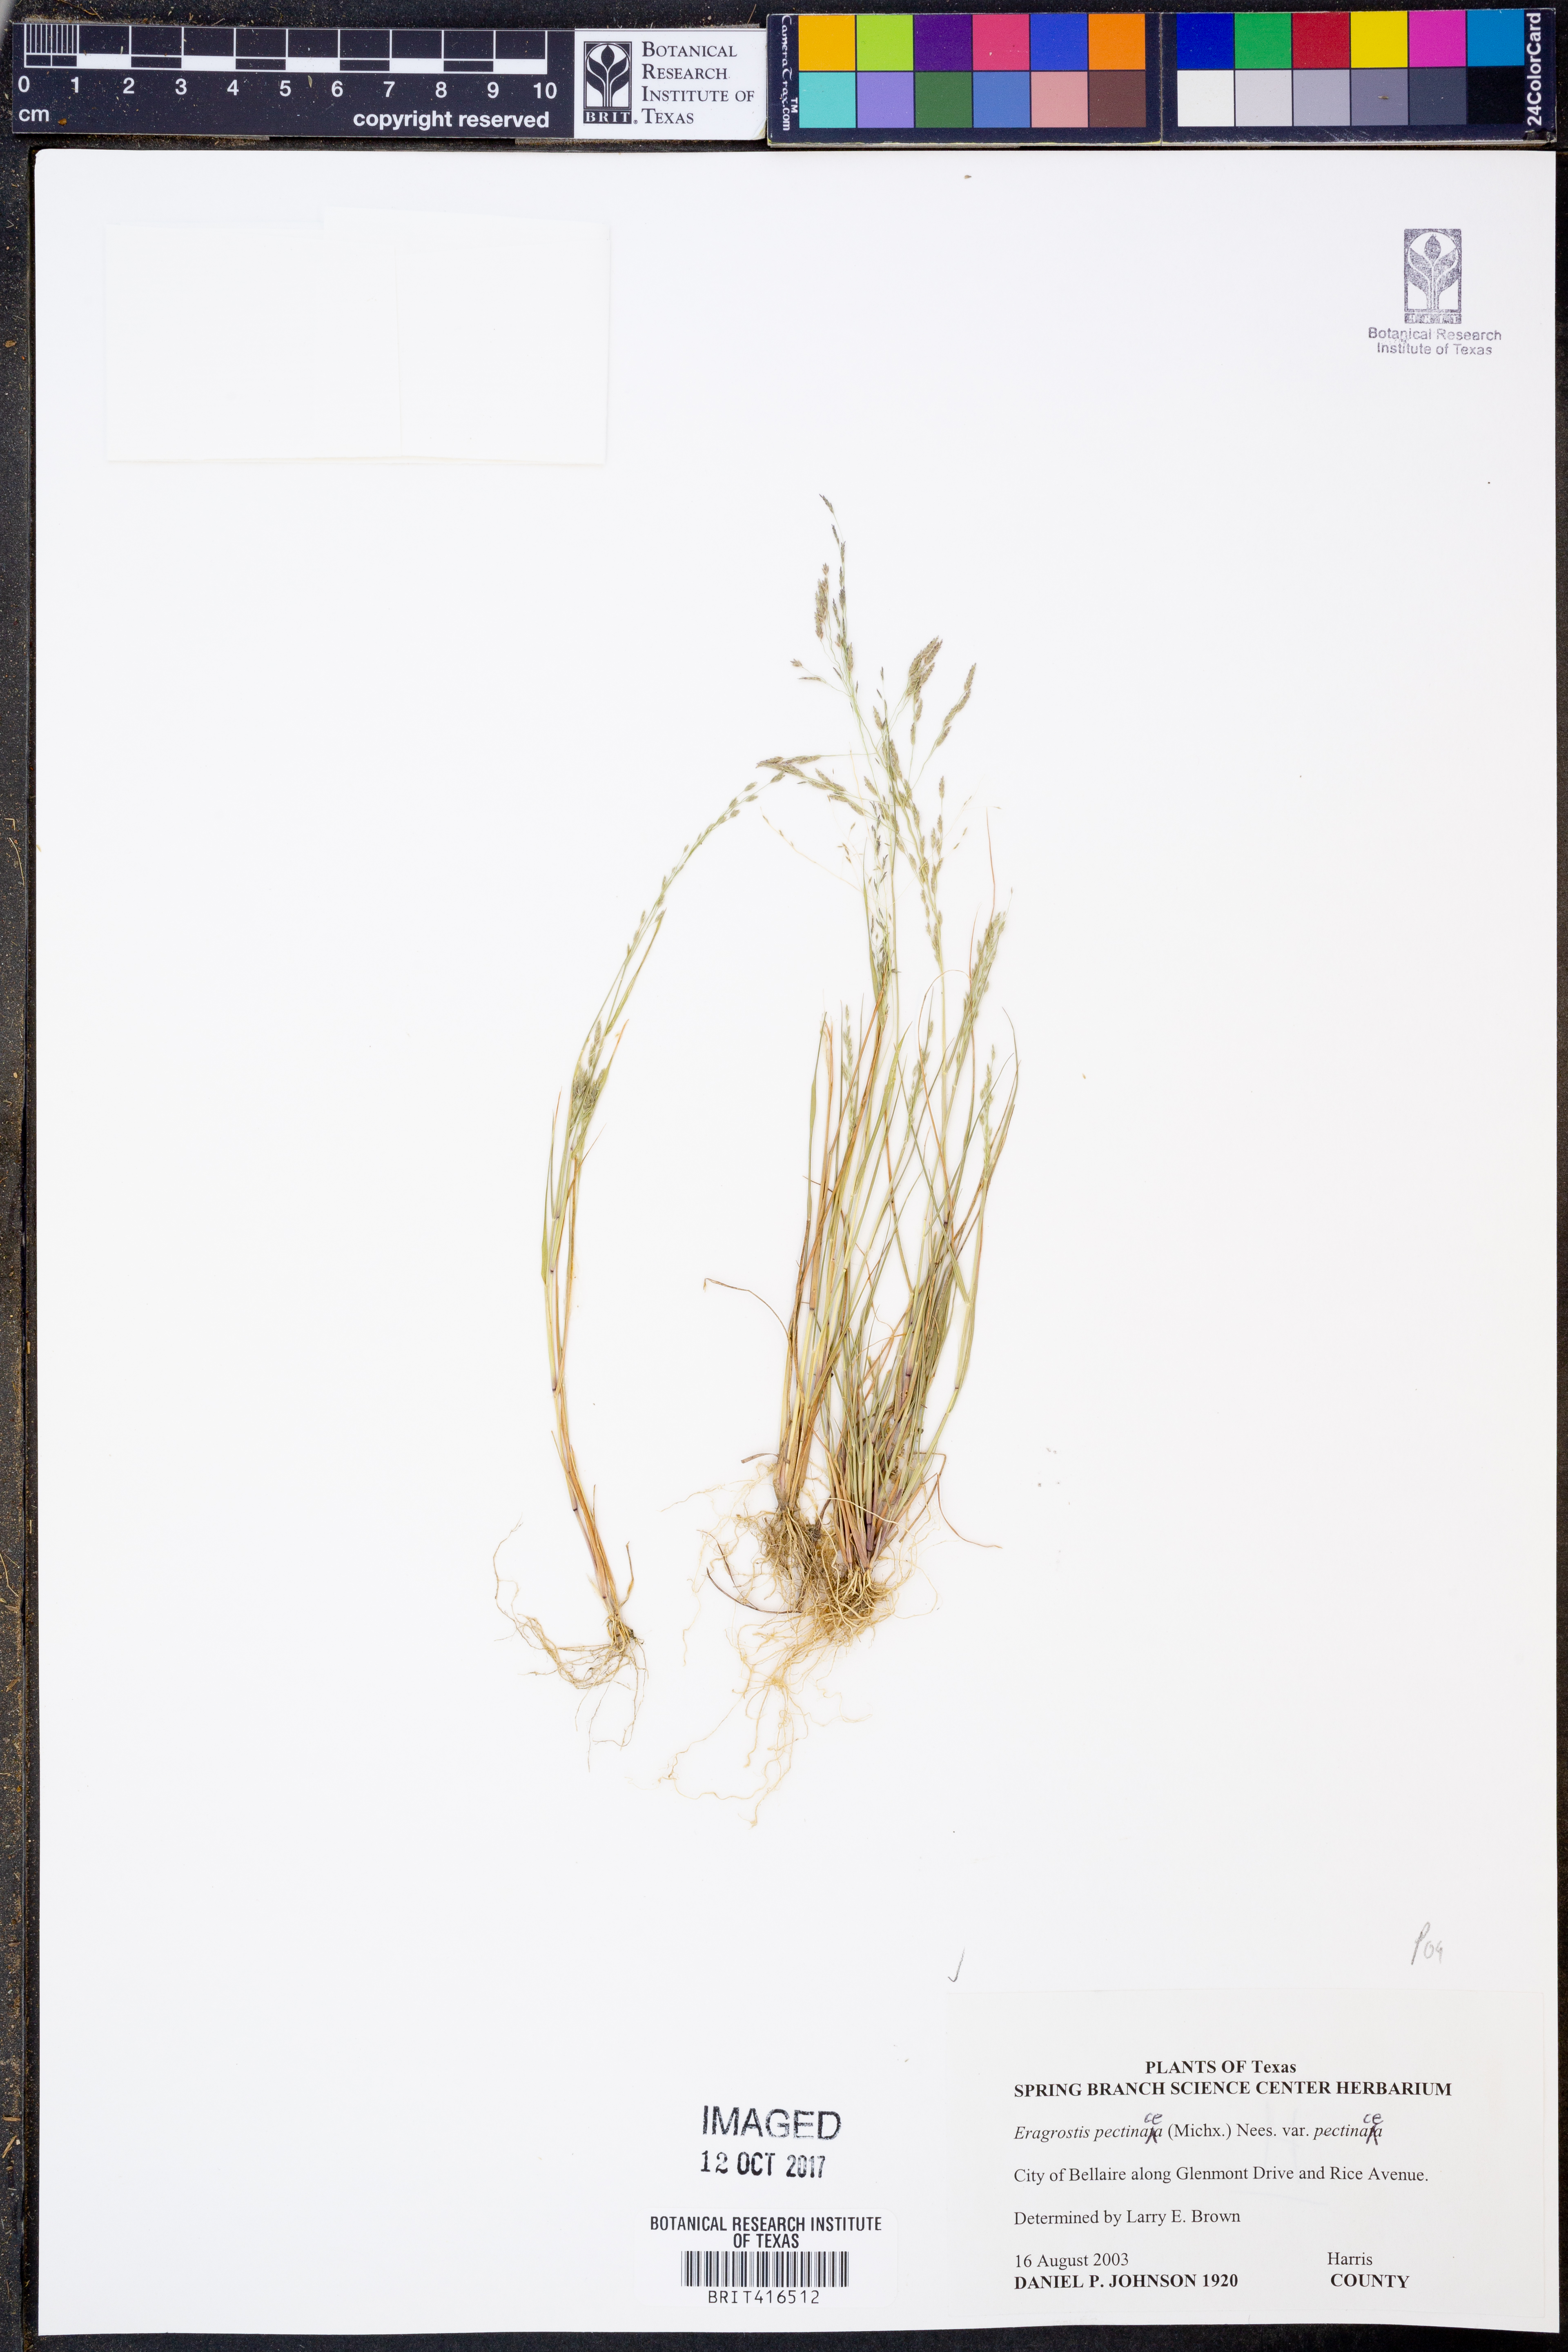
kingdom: Plantae
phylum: Tracheophyta
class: Liliopsida
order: Poales
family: Poaceae
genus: Eragrostis
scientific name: Eragrostis pectinacea
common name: Tufted lovegrass
